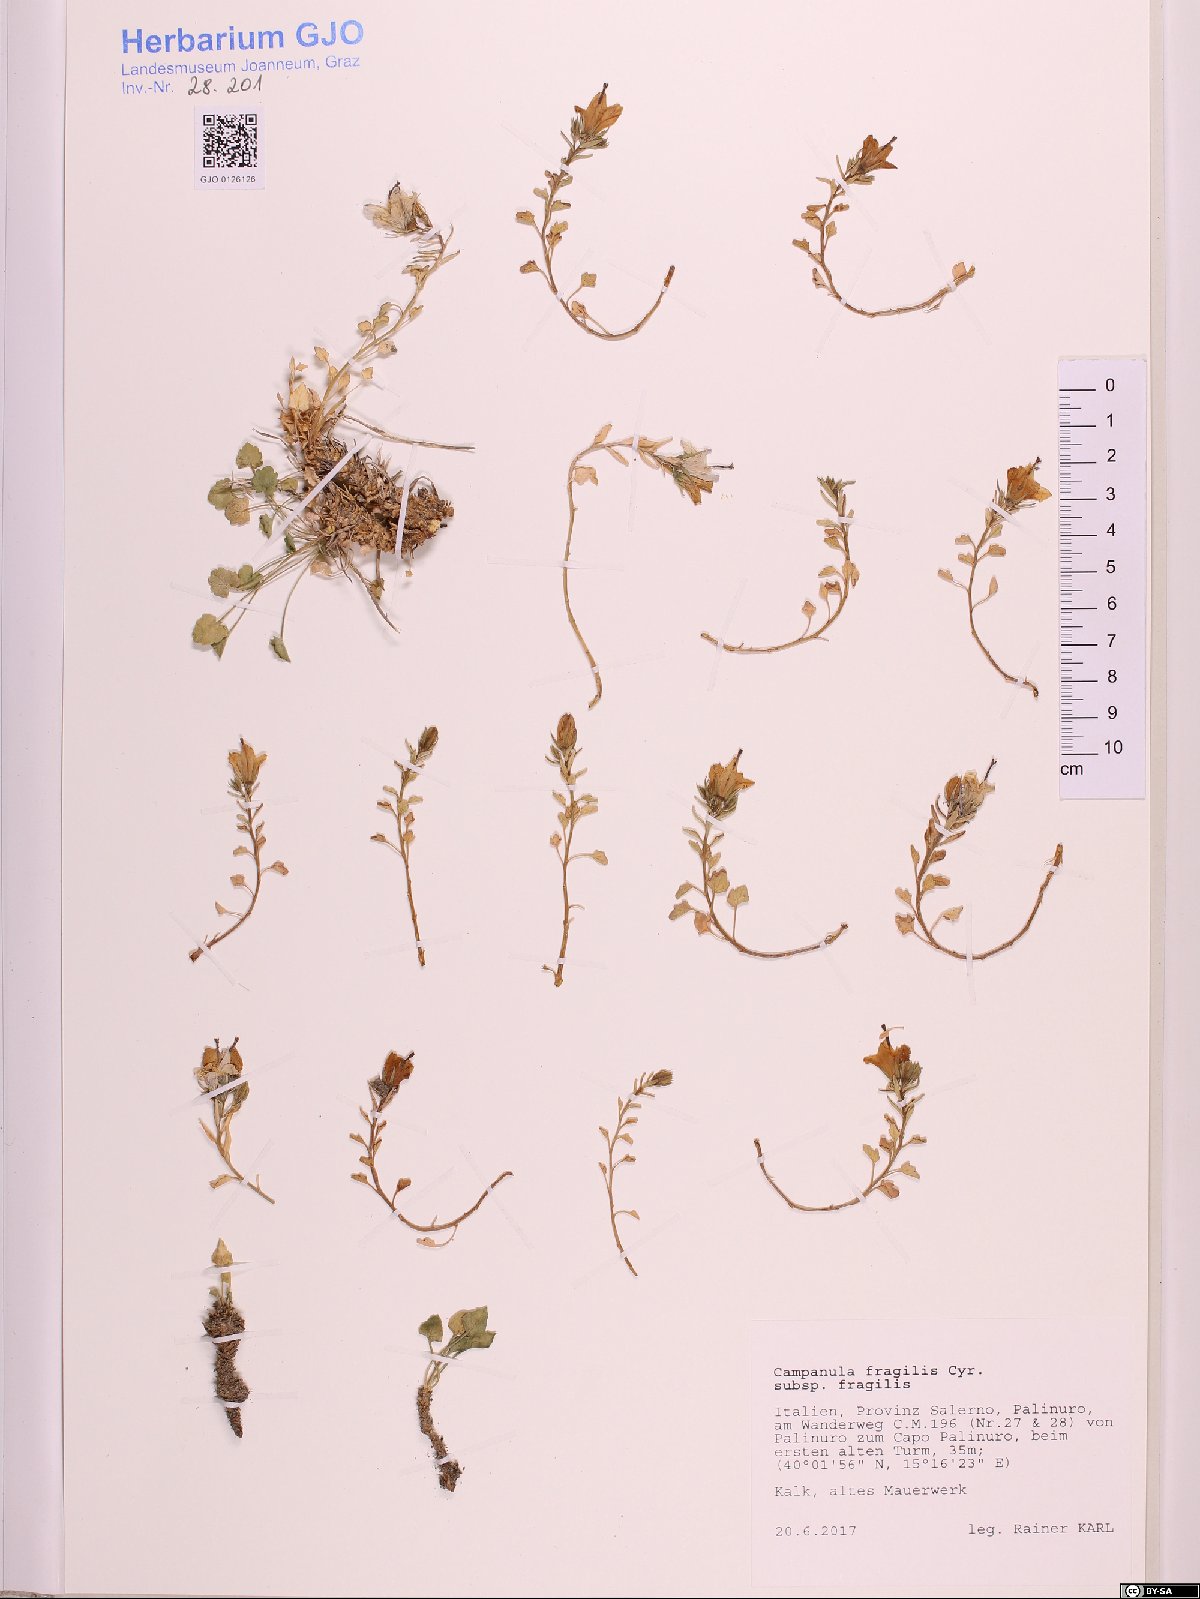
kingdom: Plantae
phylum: Tracheophyta
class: Magnoliopsida
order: Asterales
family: Campanulaceae
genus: Campanula
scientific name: Campanula fragilis
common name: Italian bellflower
